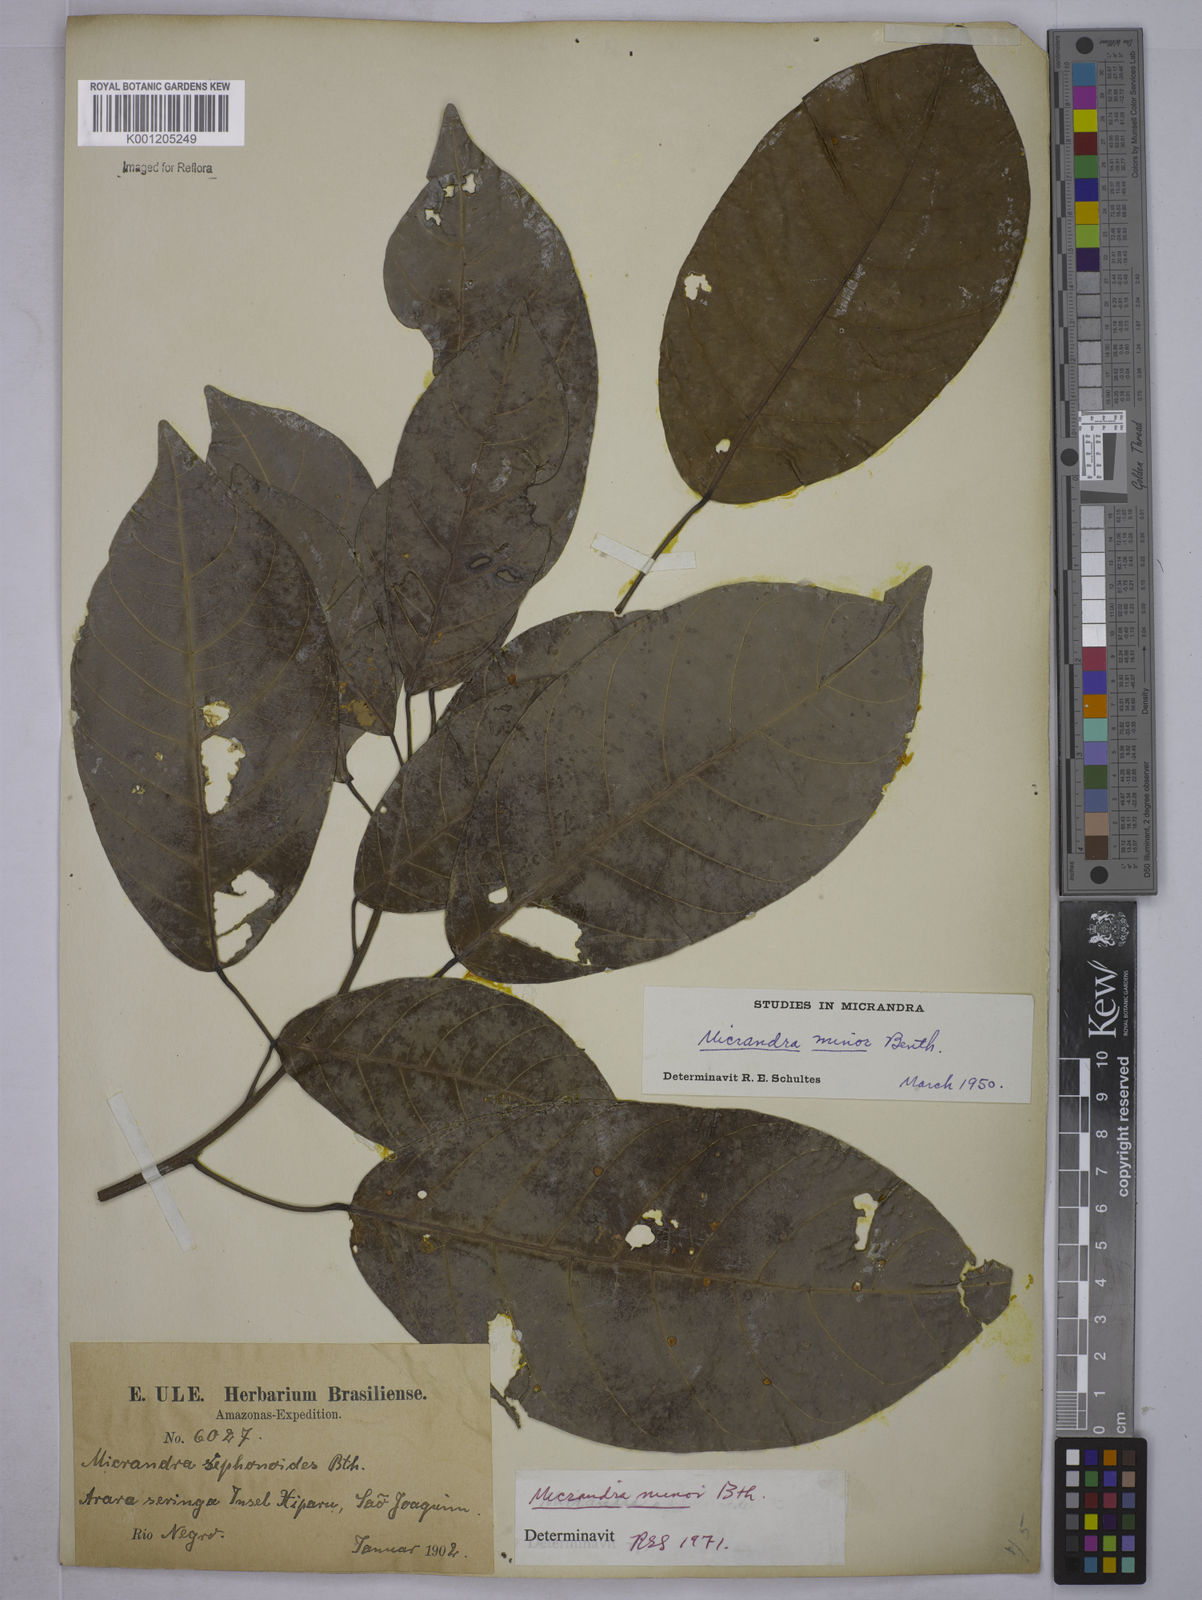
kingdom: Plantae
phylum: Tracheophyta
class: Magnoliopsida
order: Malpighiales
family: Euphorbiaceae
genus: Micrandra
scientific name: Micrandra minor
